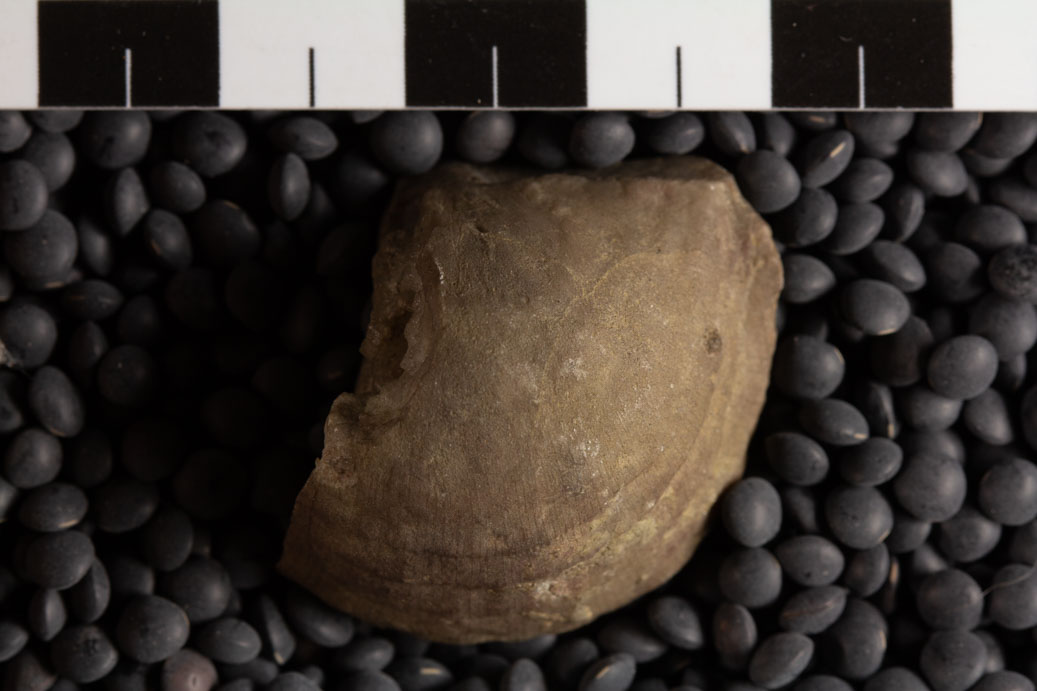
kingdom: Animalia
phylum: Brachiopoda
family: Strophomenidae
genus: Strophomena
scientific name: Strophomena
